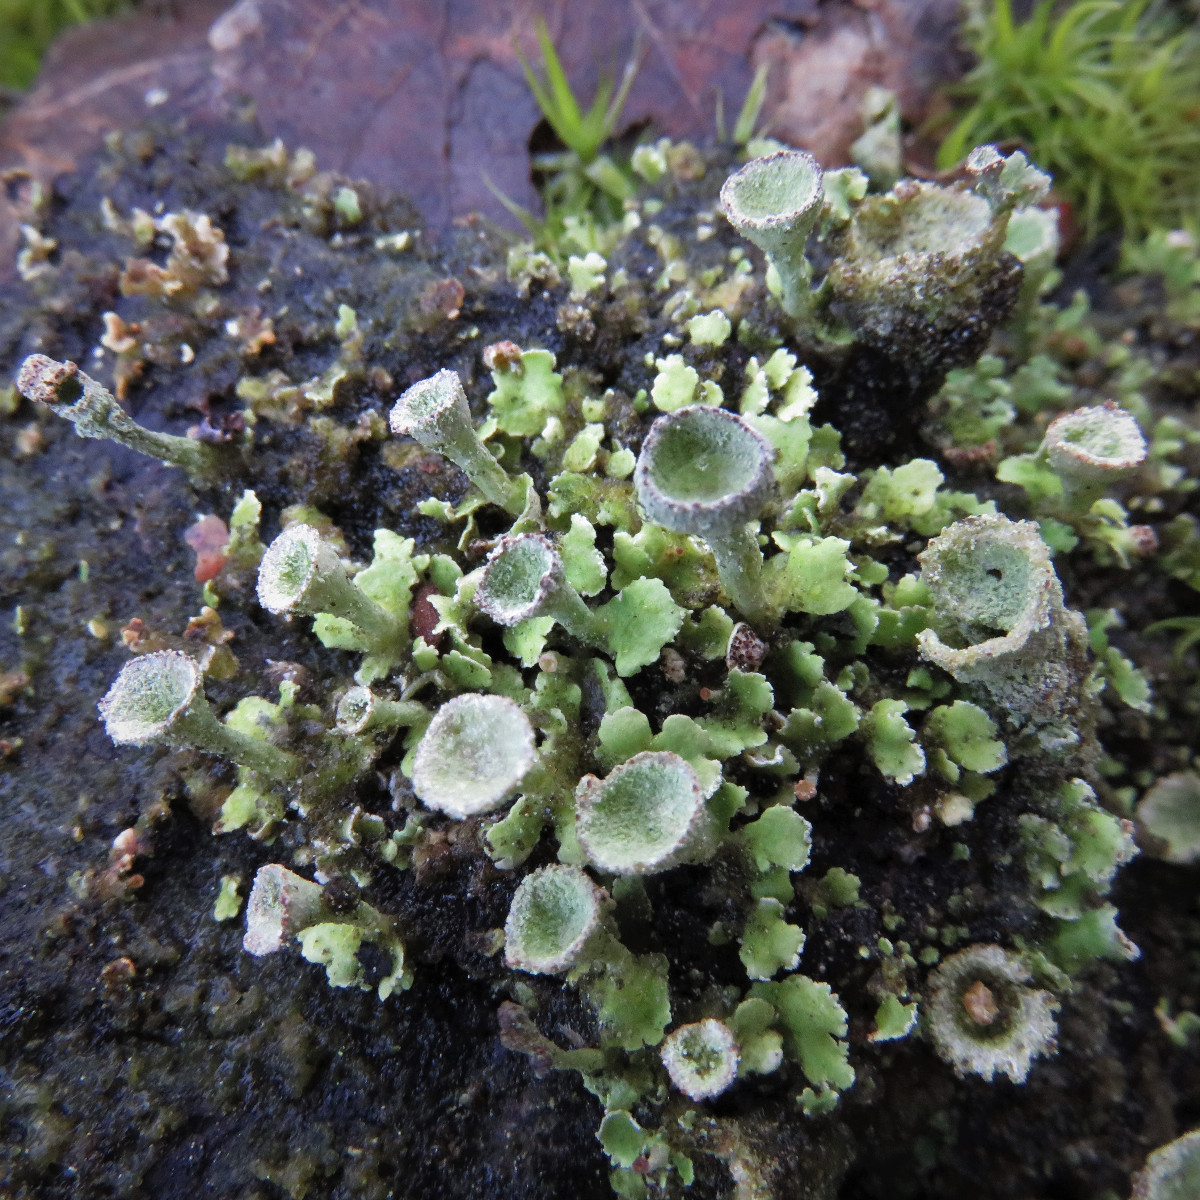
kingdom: Fungi
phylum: Ascomycota
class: Lecanoromycetes
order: Lecanorales
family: Cladoniaceae
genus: Cladonia
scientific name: Cladonia humilis
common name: lav bægerlav
